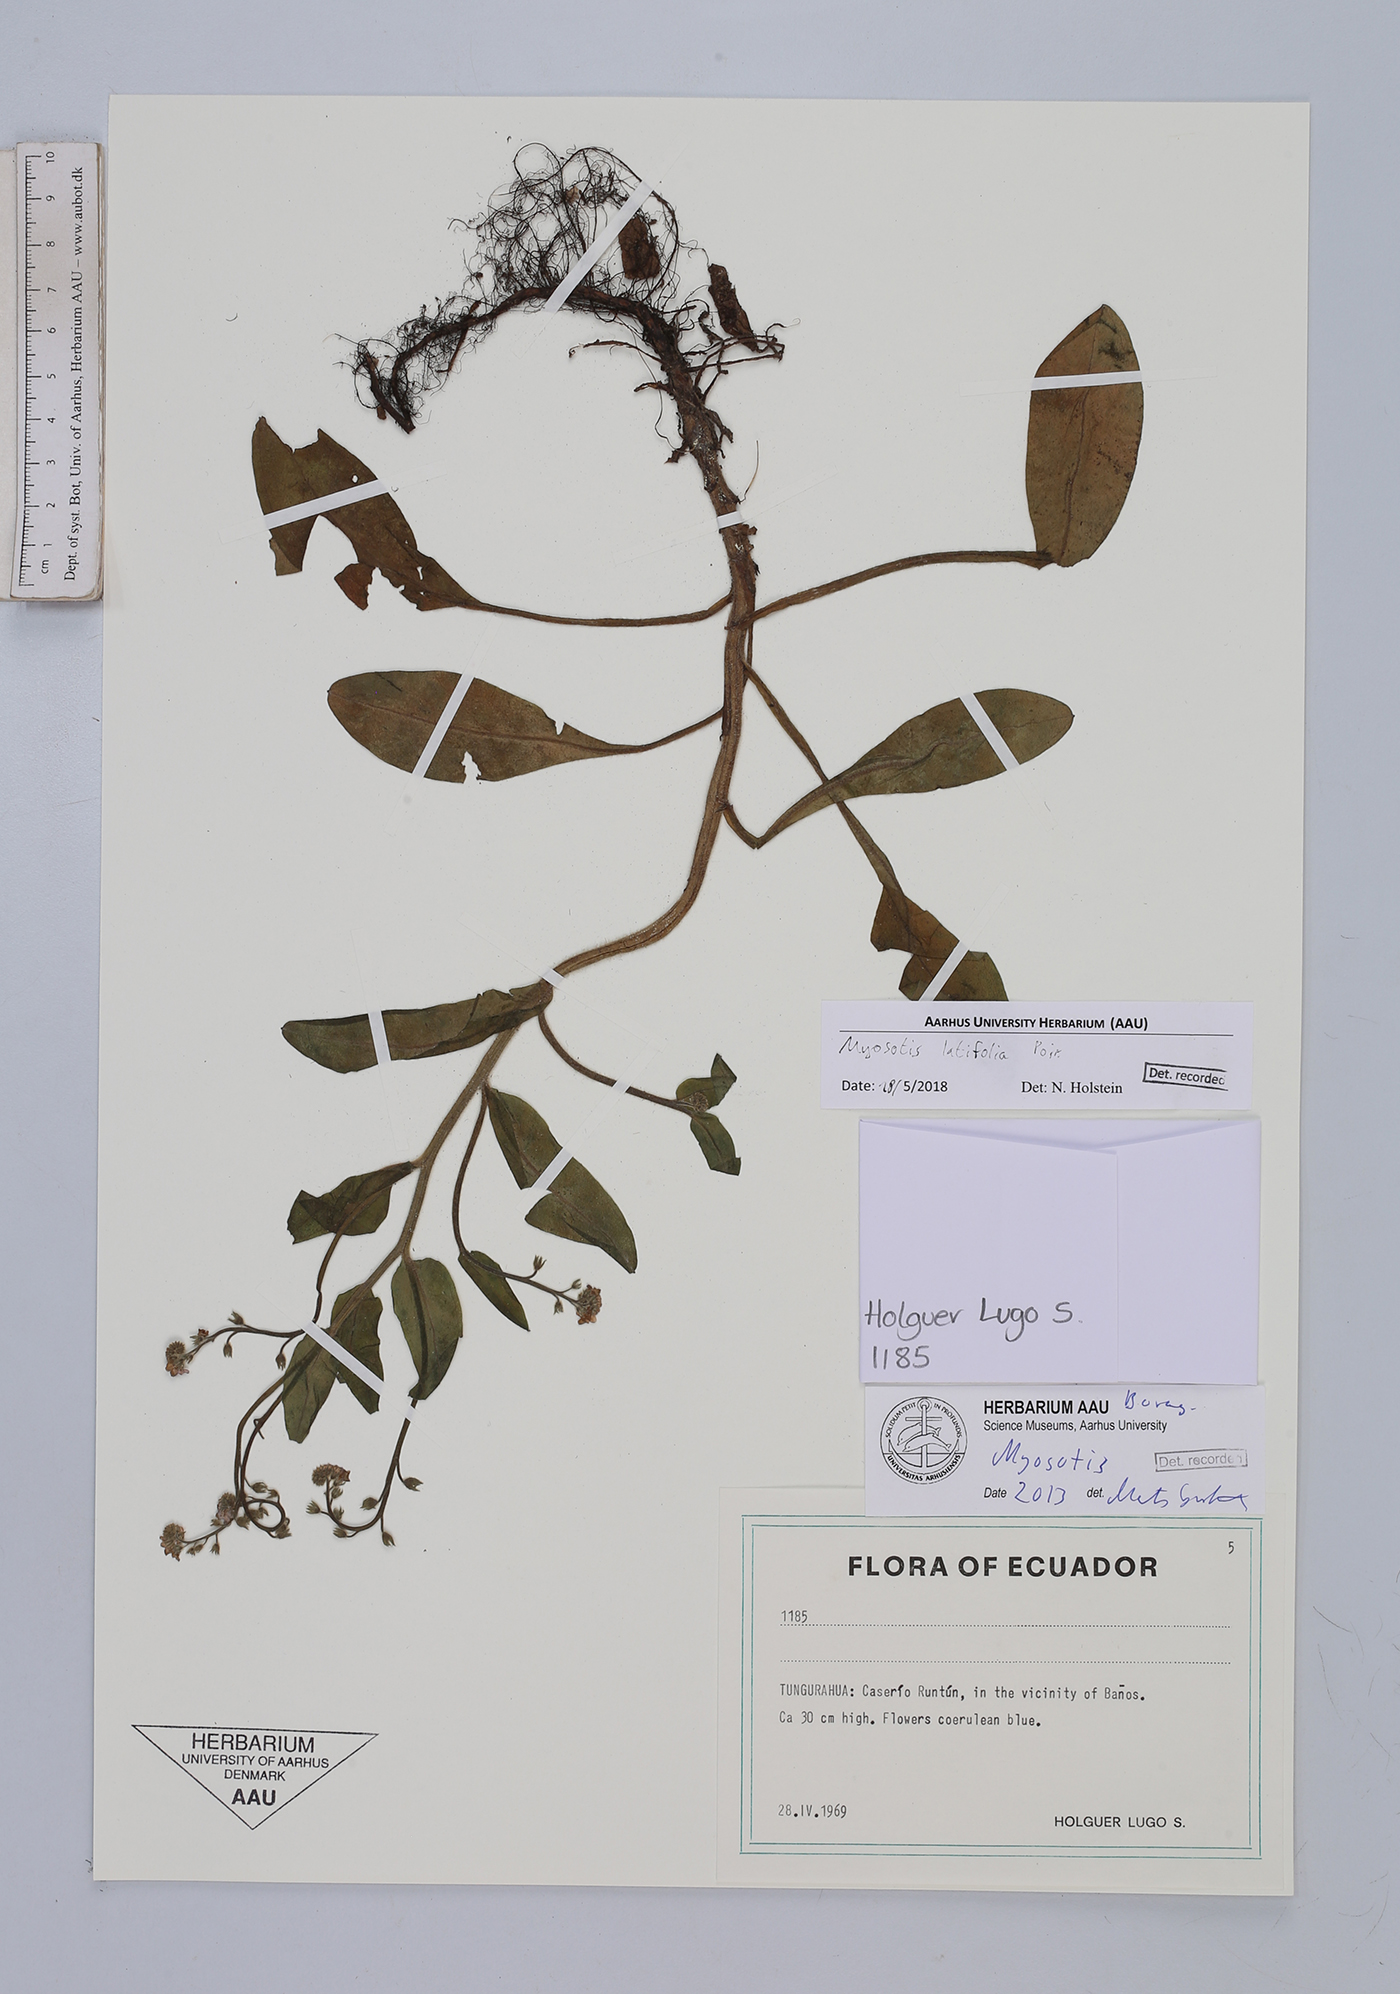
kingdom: Plantae
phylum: Tracheophyta
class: Magnoliopsida
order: Boraginales
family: Boraginaceae
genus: Myosotis
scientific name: Myosotis latifolia
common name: Broadleaf forget-me-not
